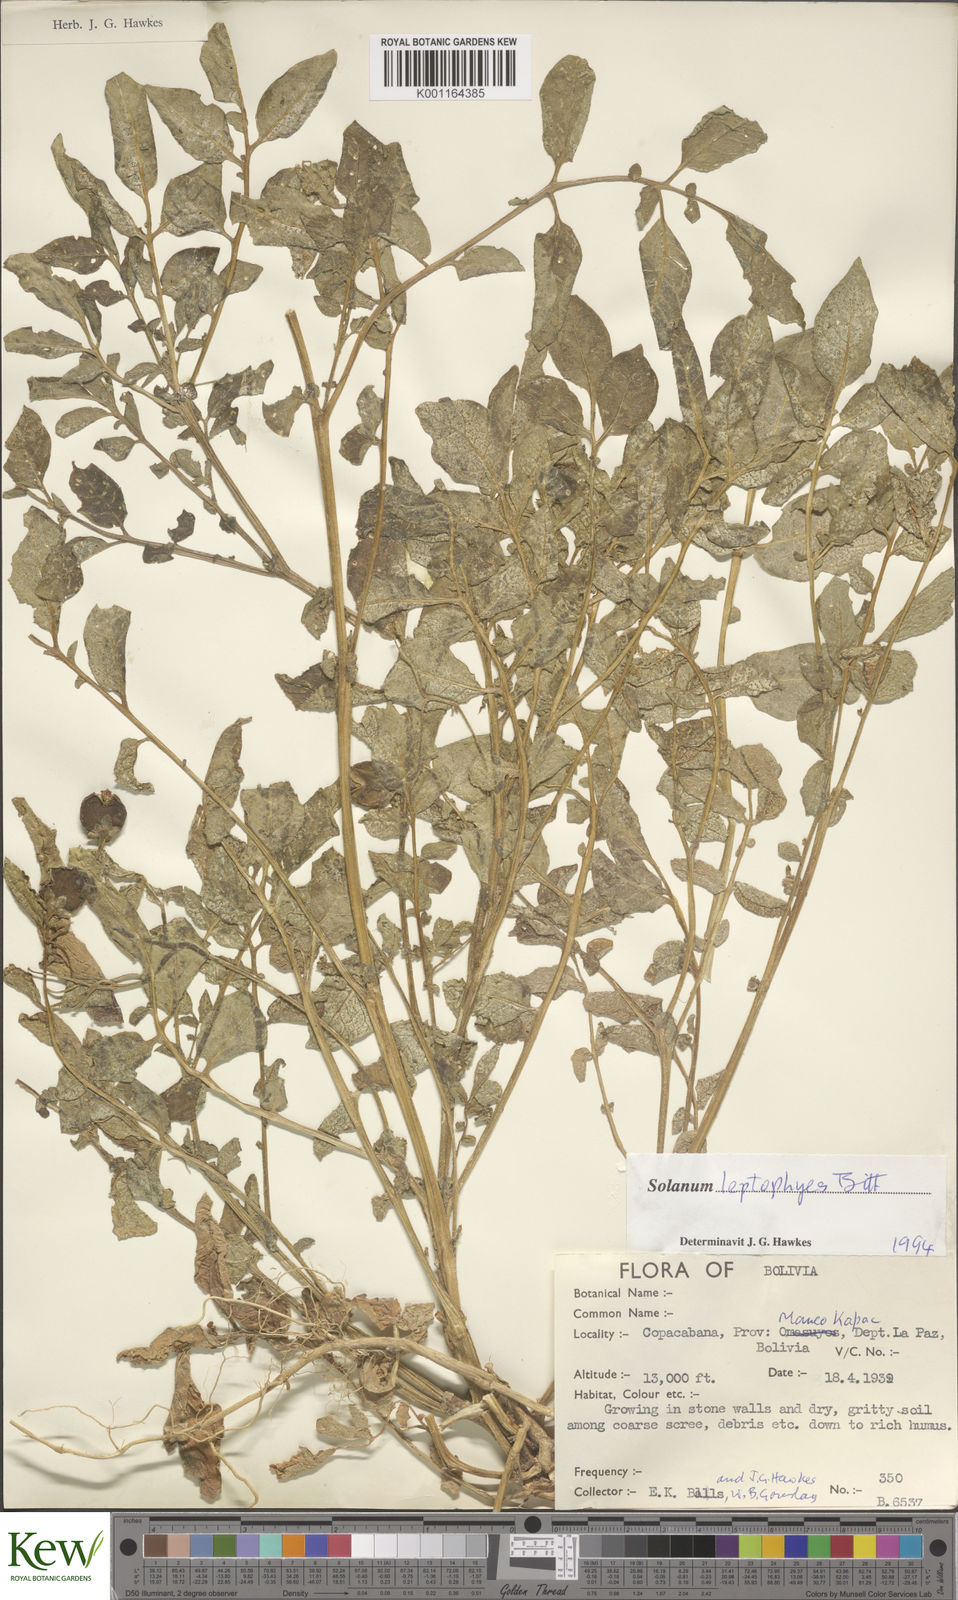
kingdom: Plantae
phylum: Tracheophyta
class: Magnoliopsida
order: Solanales
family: Solanaceae
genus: Solanum
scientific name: Solanum brevicaule
